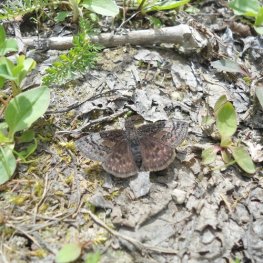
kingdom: Animalia
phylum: Arthropoda
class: Insecta
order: Lepidoptera
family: Hesperiidae
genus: Erynnis
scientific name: Erynnis icelus
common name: Dreamy Duskywing
